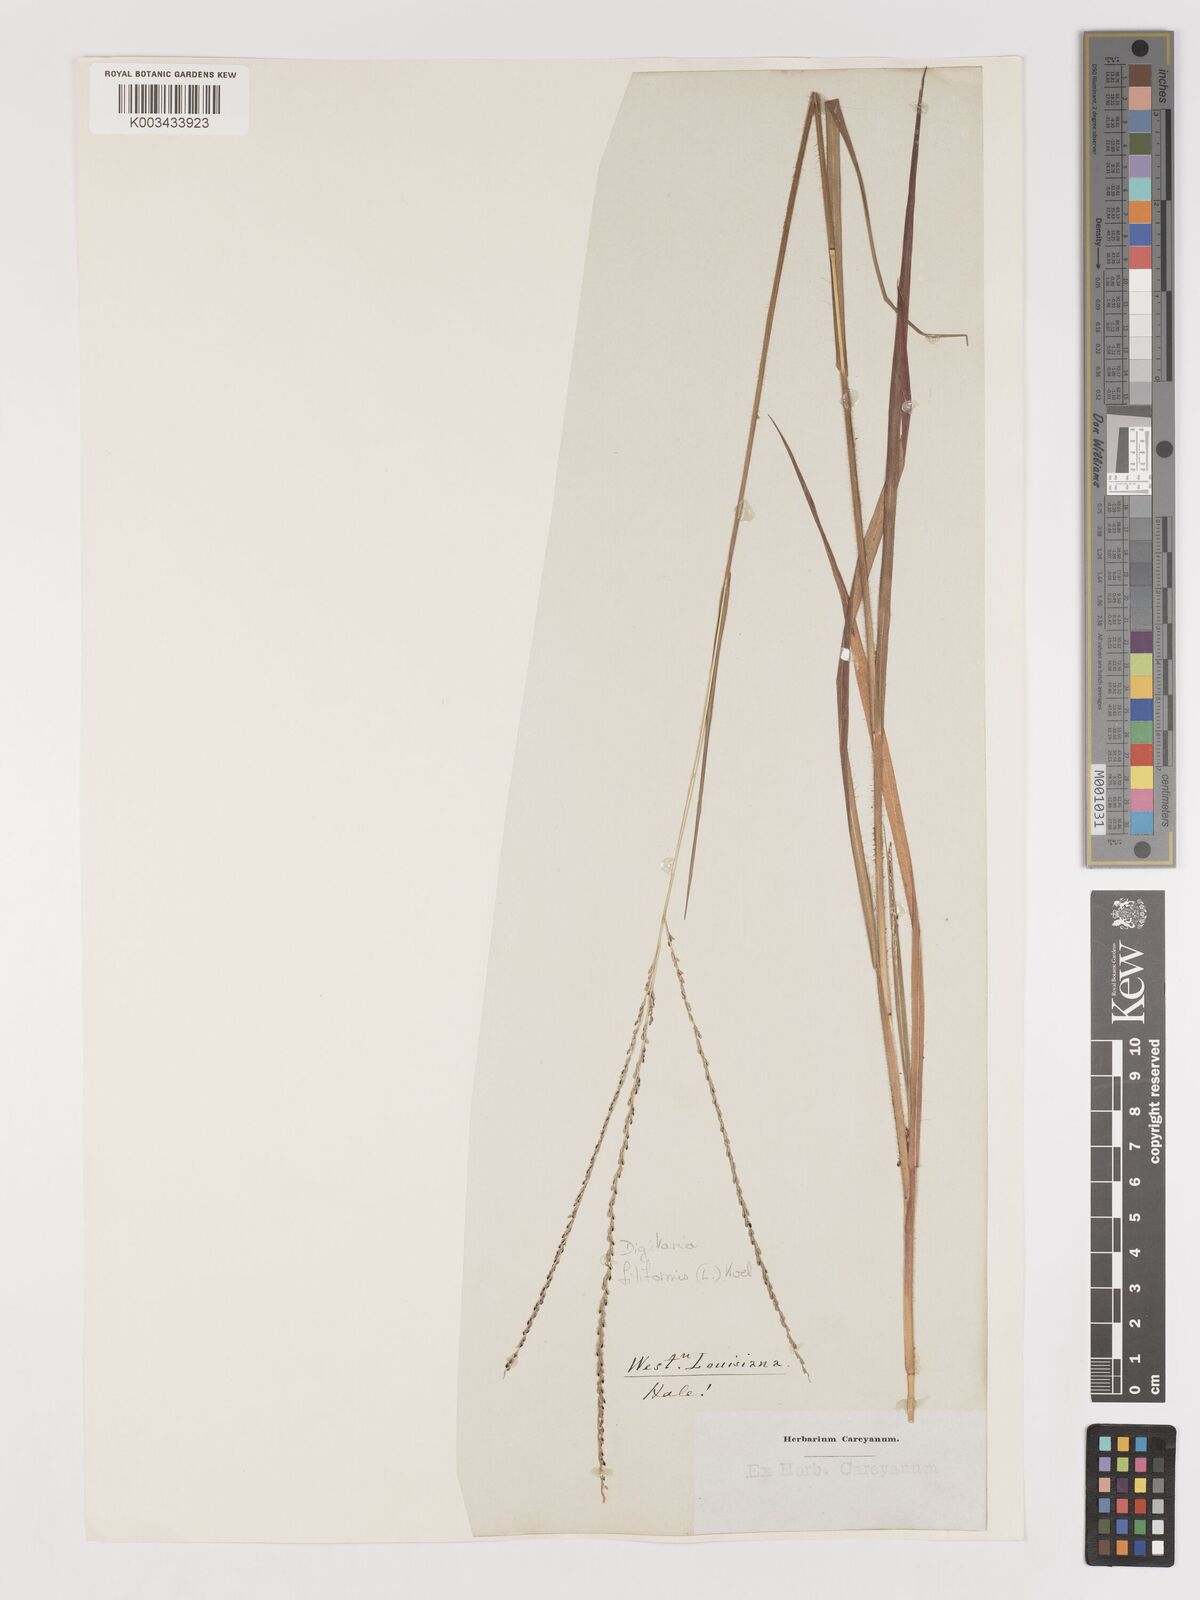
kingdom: Plantae
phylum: Tracheophyta
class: Liliopsida
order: Poales
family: Poaceae
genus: Digitaria
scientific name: Digitaria filiformis
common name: Slender crabgrass
